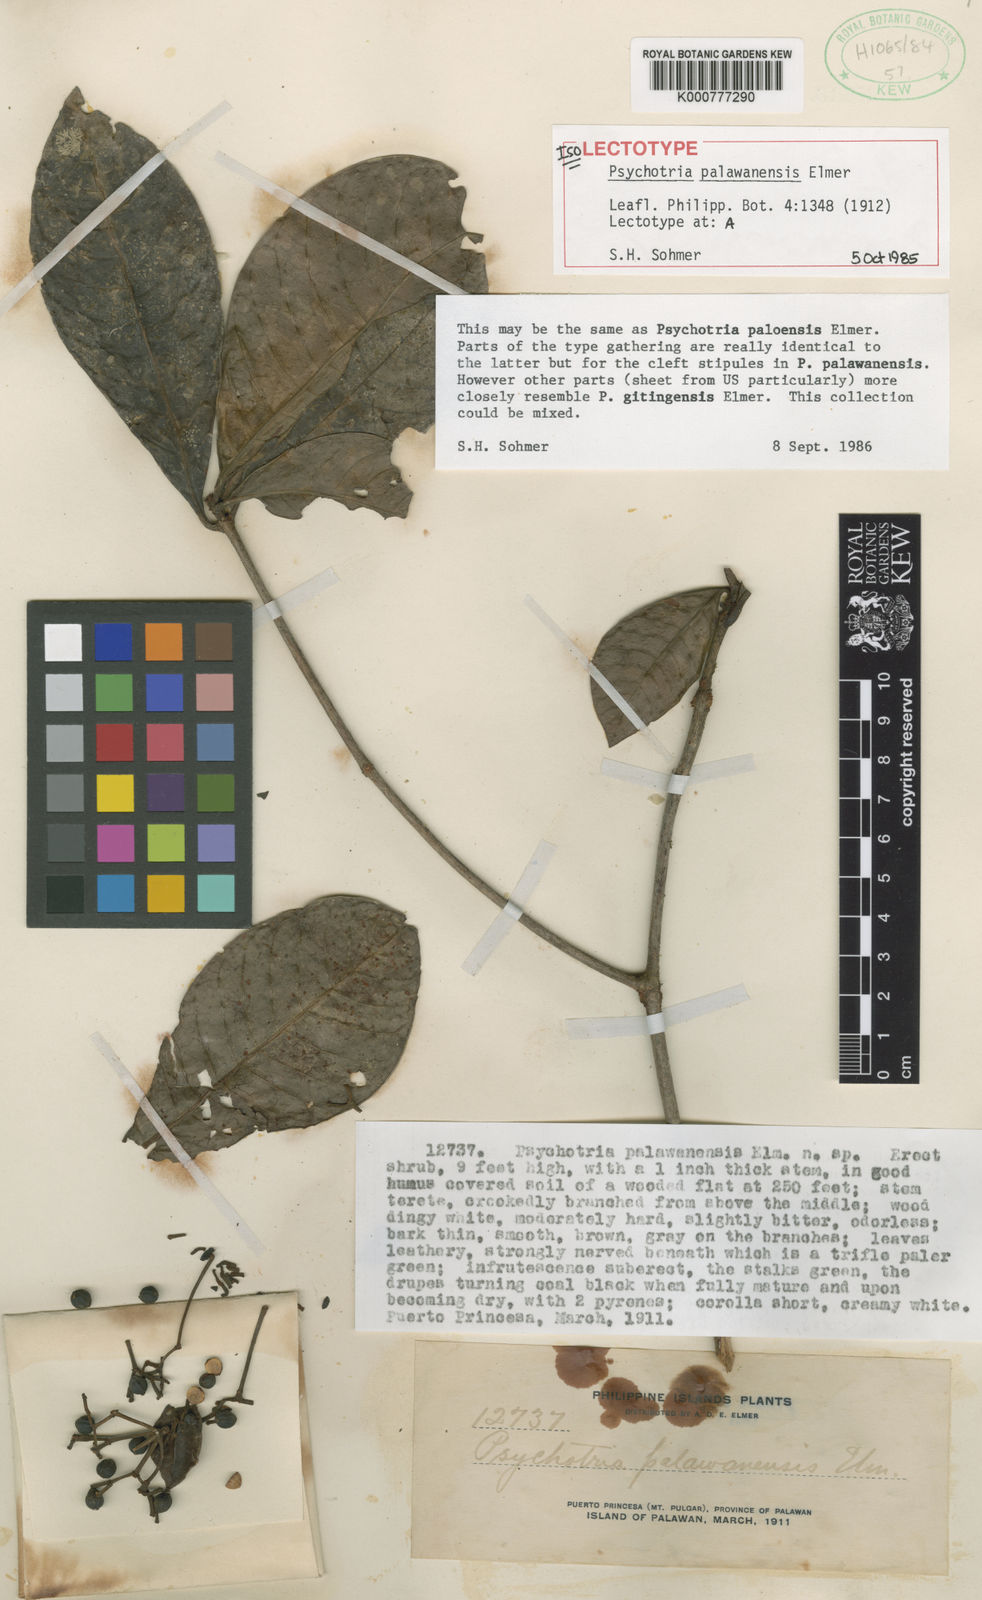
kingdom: Plantae
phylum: Tracheophyta
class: Magnoliopsida
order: Gentianales
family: Rubiaceae
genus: Psychotria
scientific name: Psychotria palawanensis
